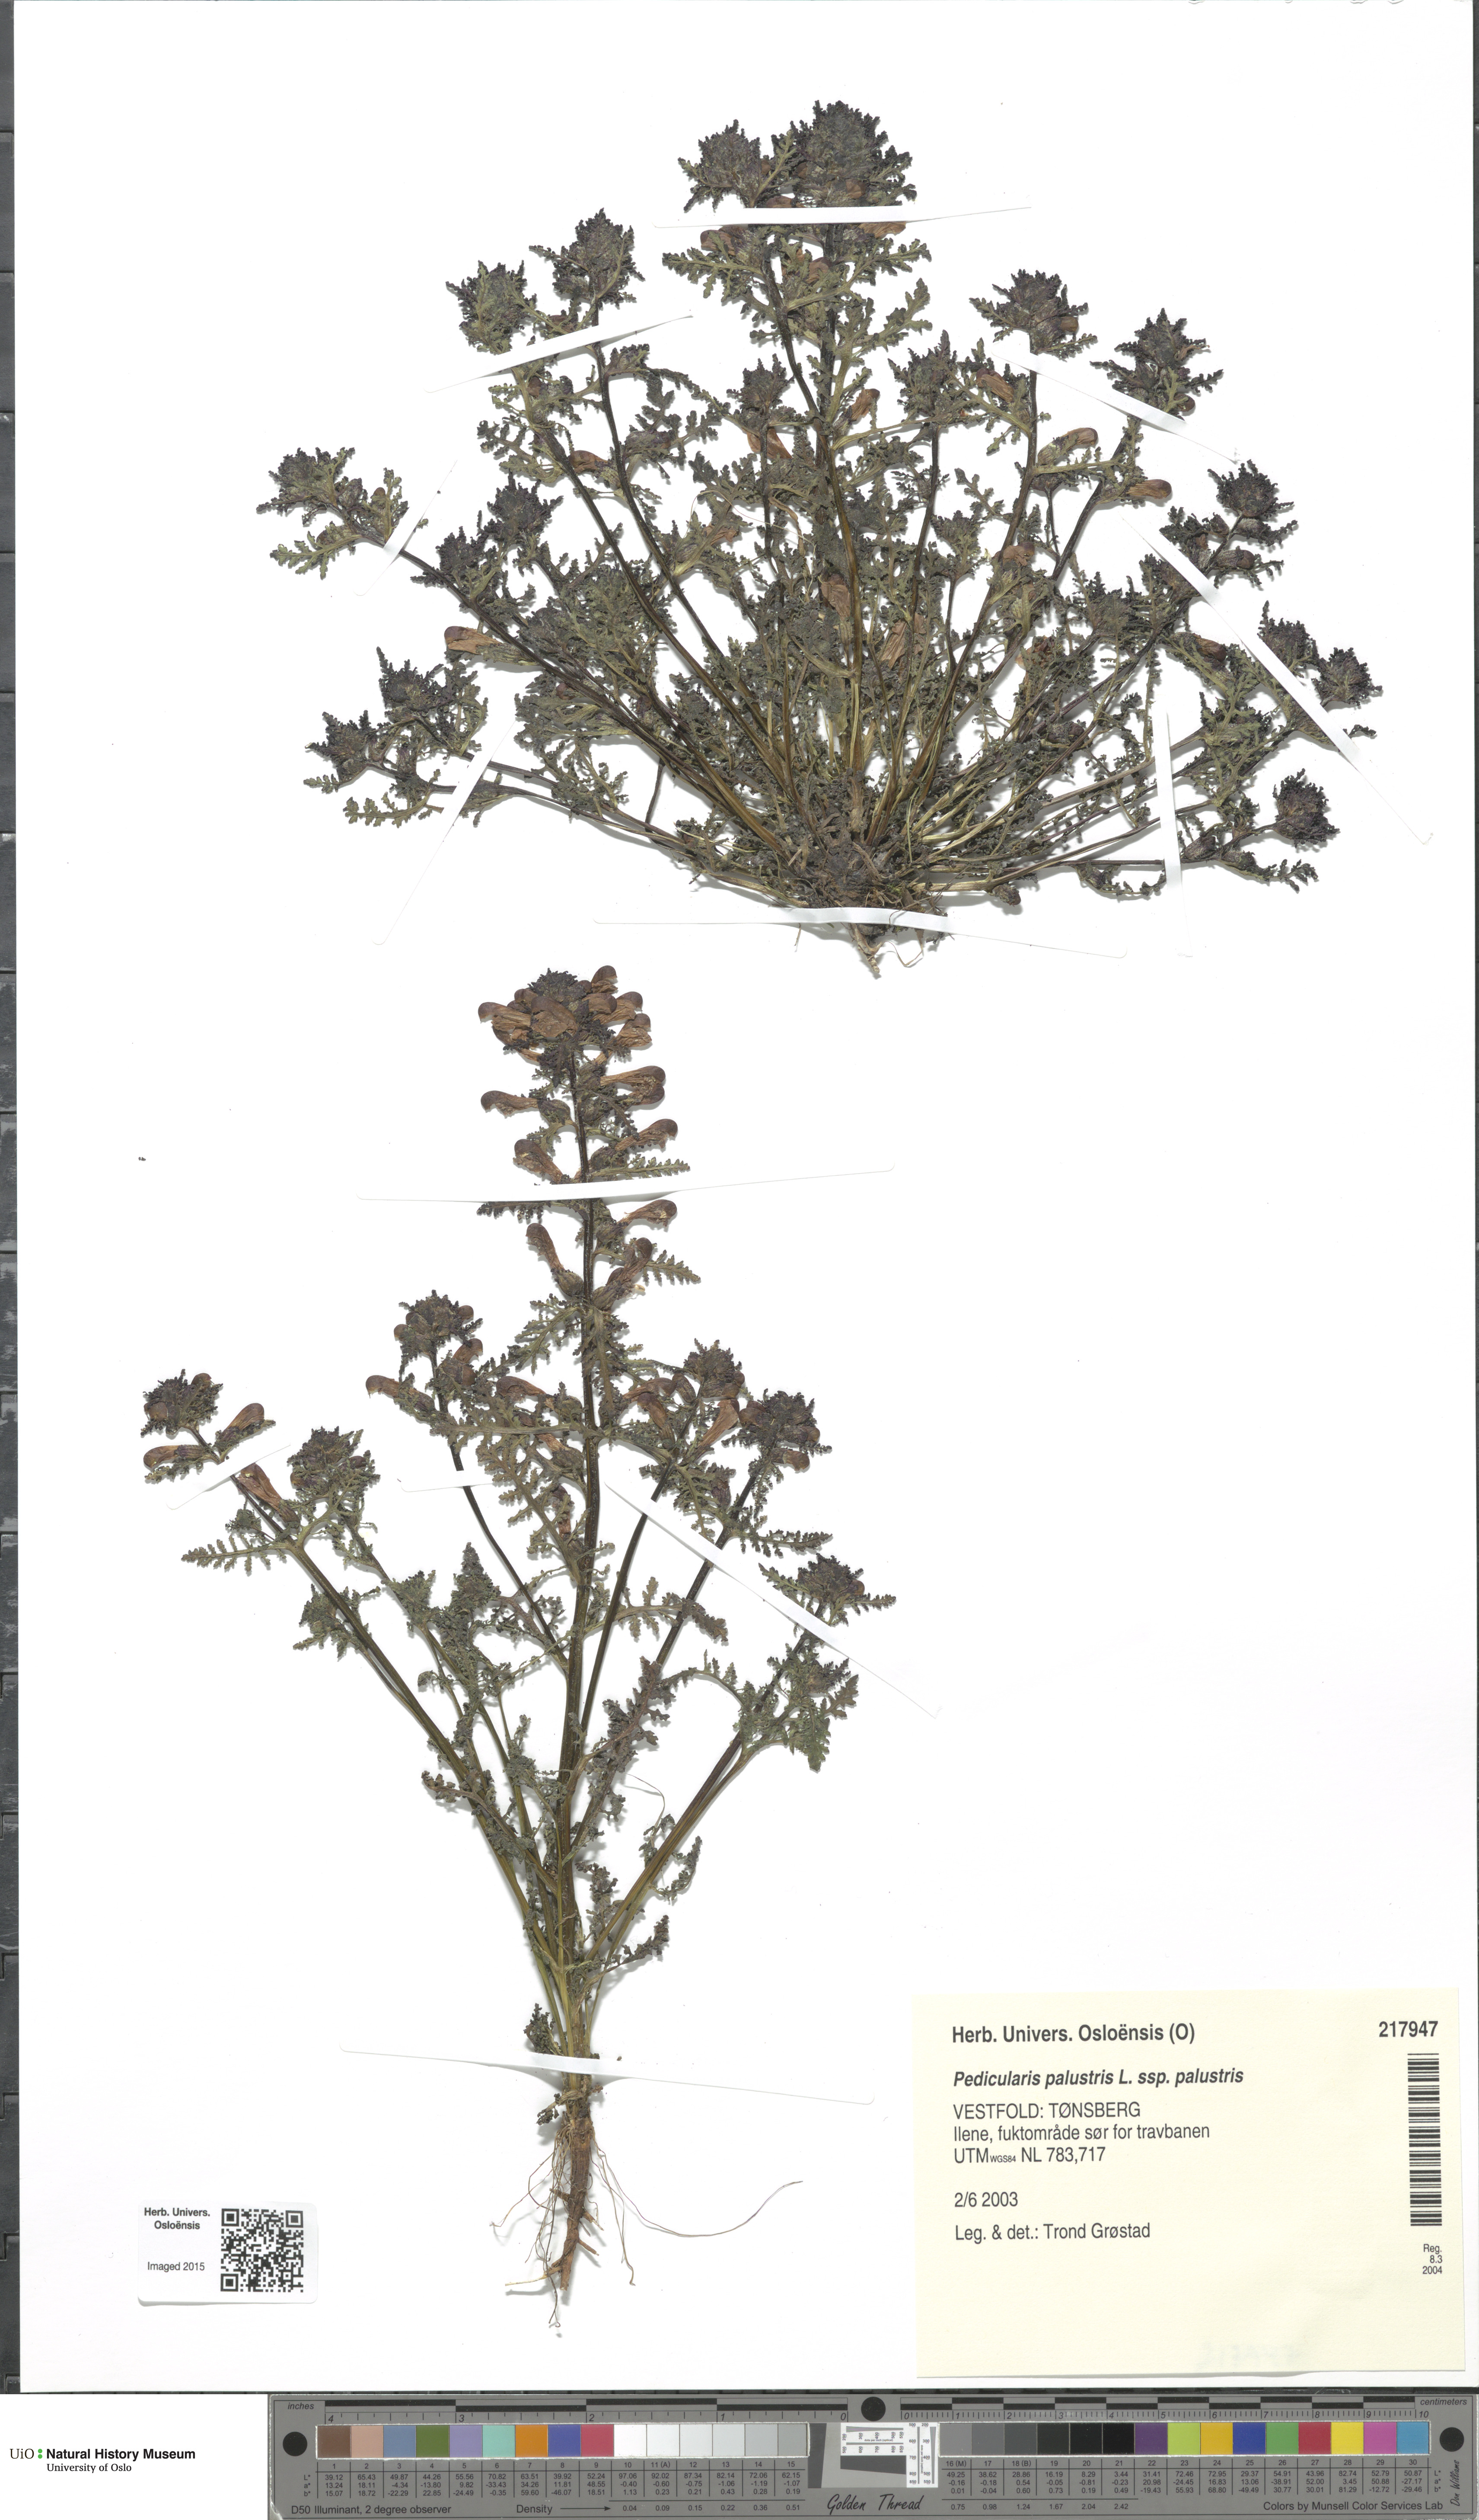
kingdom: Plantae
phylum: Tracheophyta
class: Magnoliopsida
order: Lamiales
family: Orobanchaceae
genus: Pedicularis
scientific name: Pedicularis palustris
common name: Marsh lousewort
